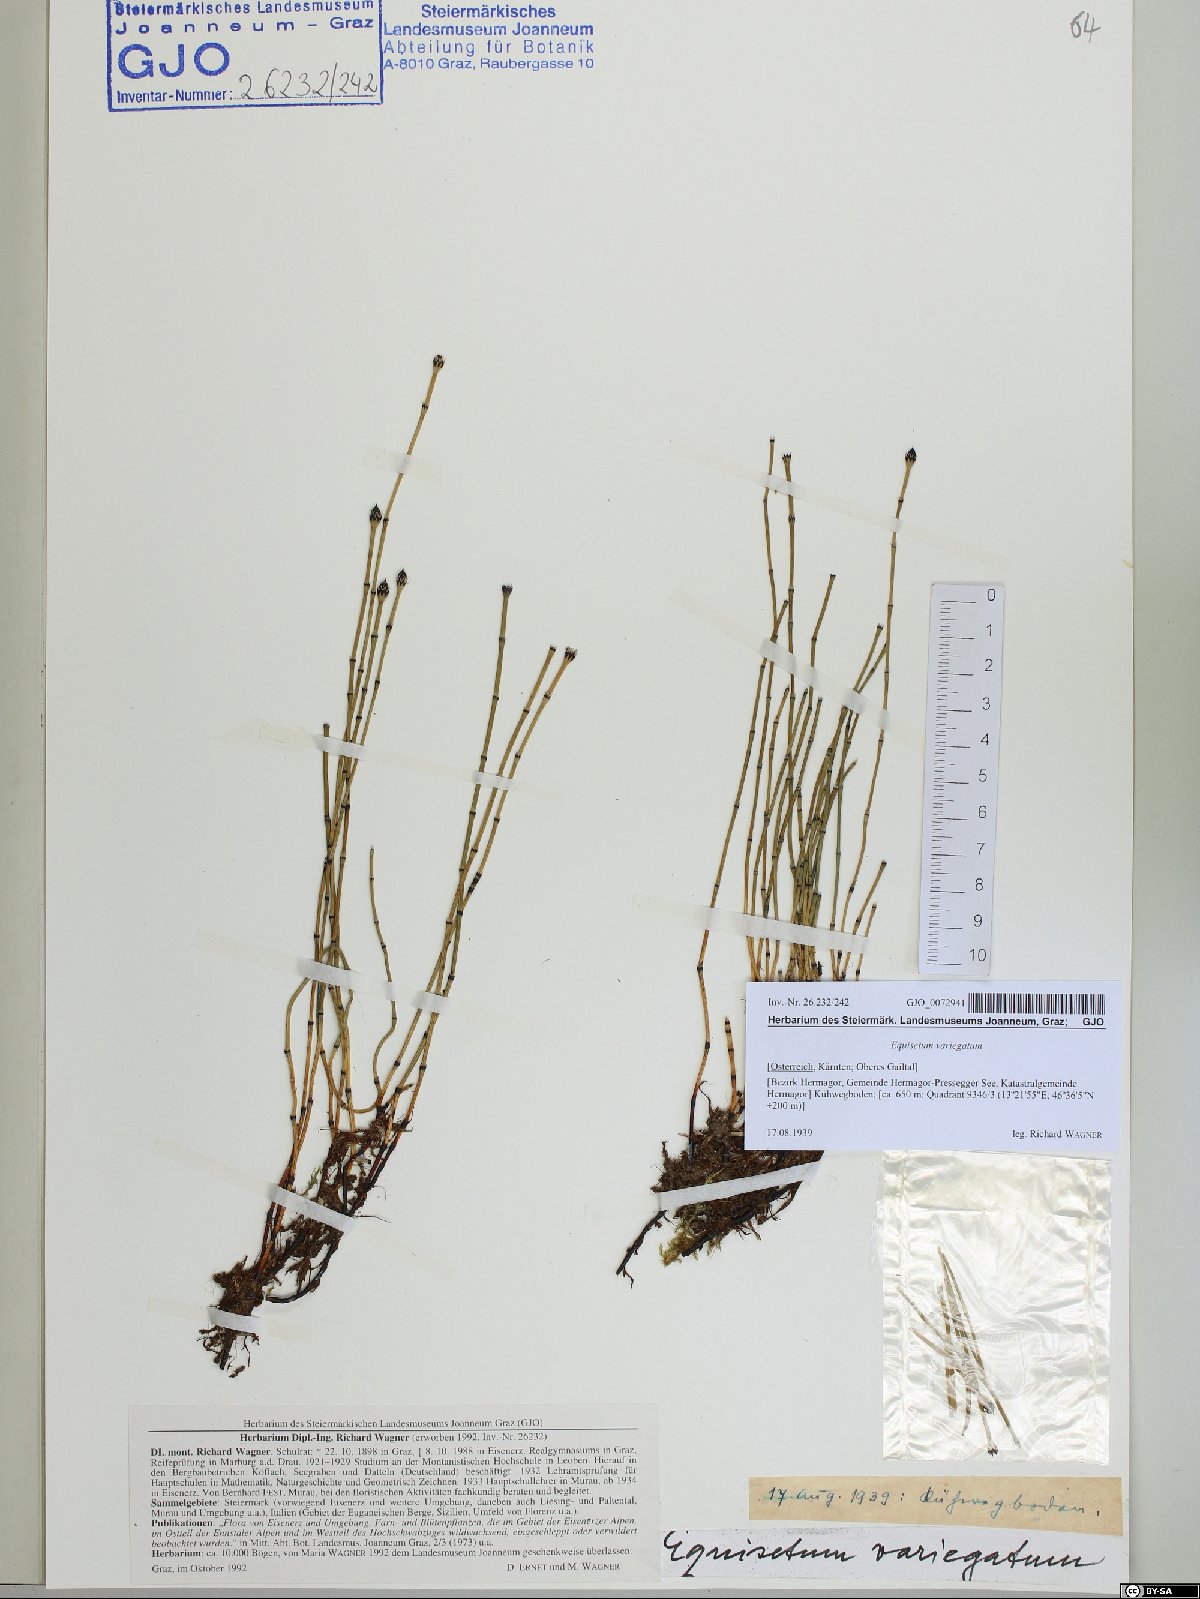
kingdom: Plantae
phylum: Tracheophyta
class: Polypodiopsida
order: Equisetales
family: Equisetaceae
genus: Equisetum
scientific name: Equisetum variegatum
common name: Variegated horsetail
